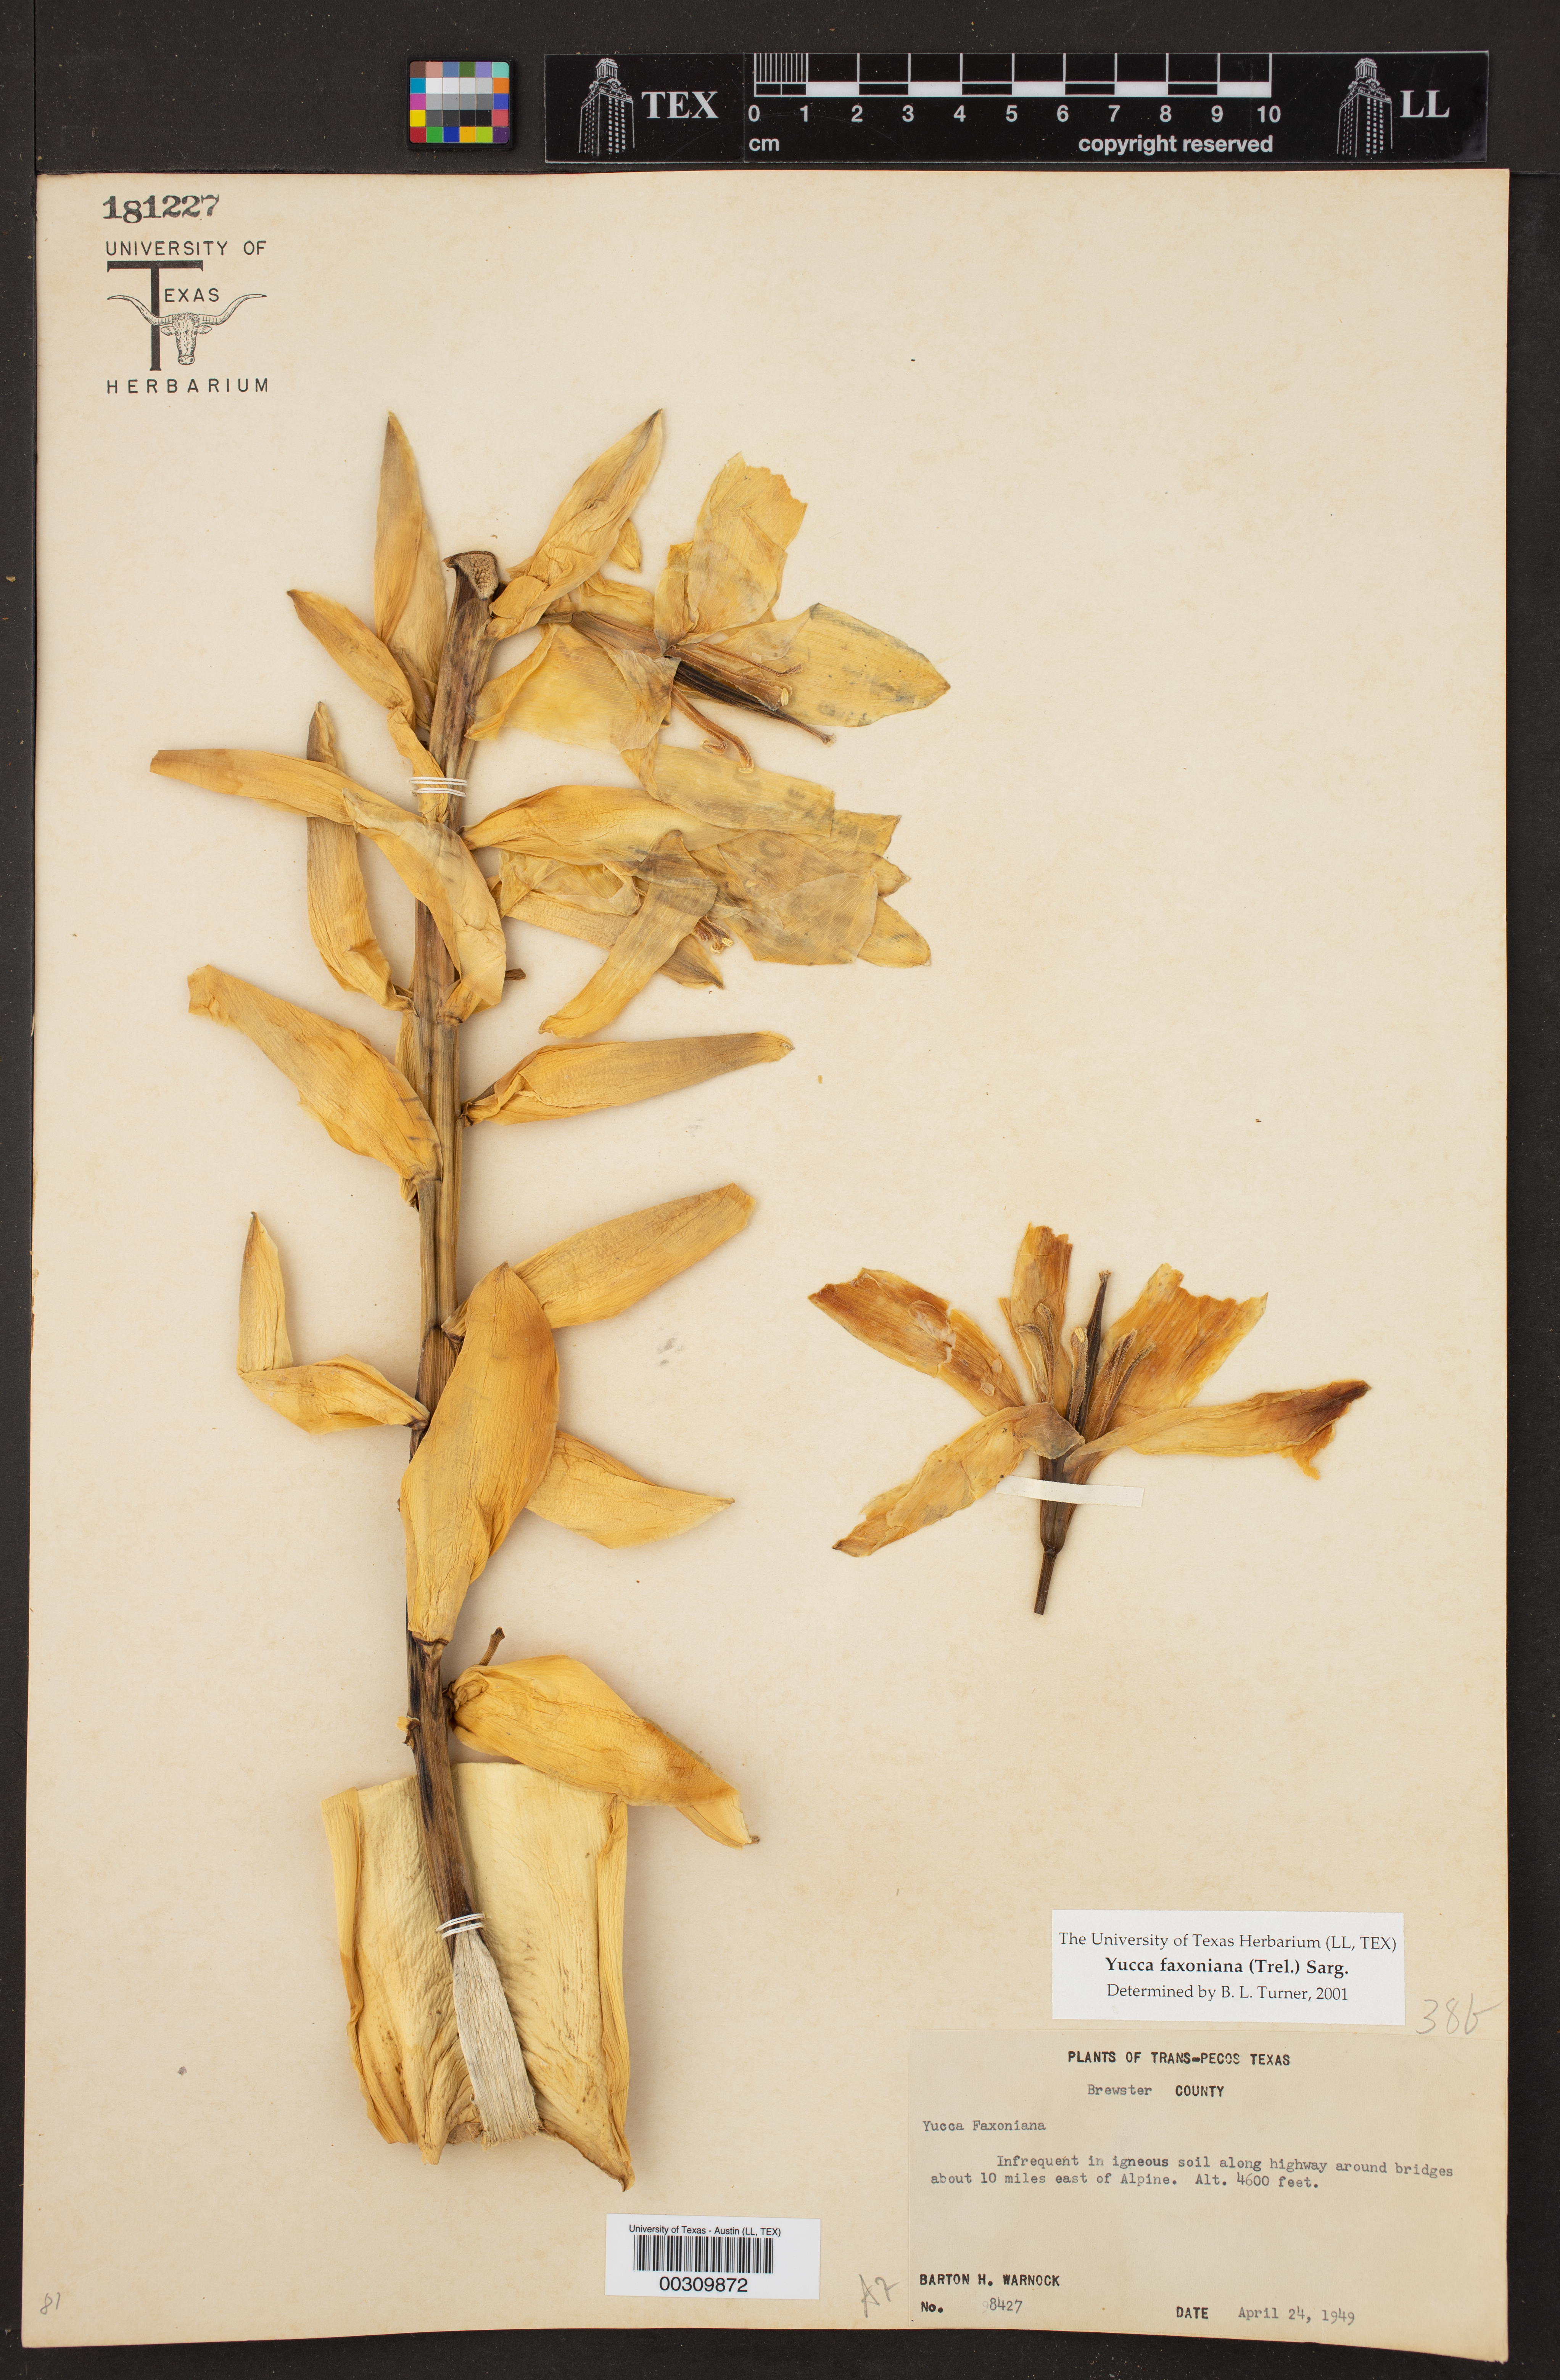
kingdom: Plantae
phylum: Tracheophyta
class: Liliopsida
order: Asparagales
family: Asparagaceae
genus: Yucca
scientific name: Yucca faxoniana
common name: Spanish dagger
